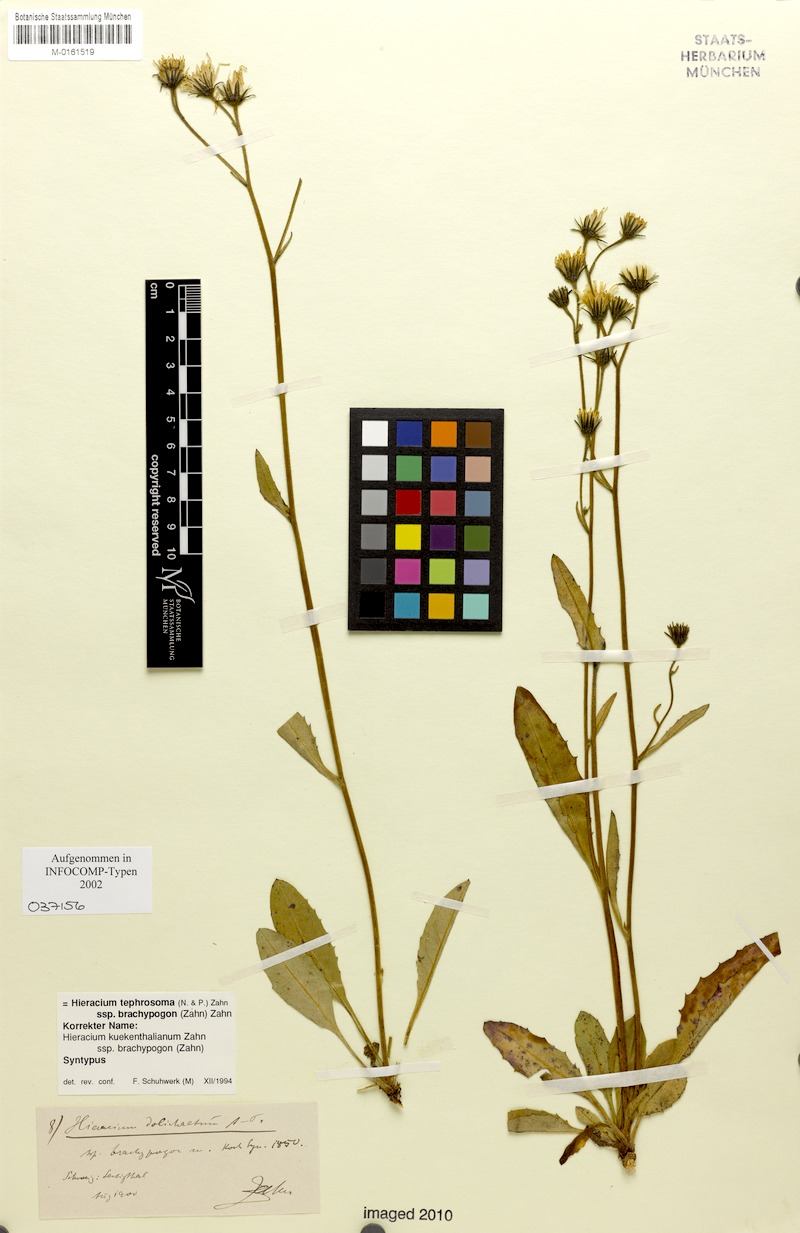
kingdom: Plantae
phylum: Tracheophyta
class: Magnoliopsida
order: Asterales
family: Asteraceae
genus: Hieracium
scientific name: Hieracium tephrosoma
